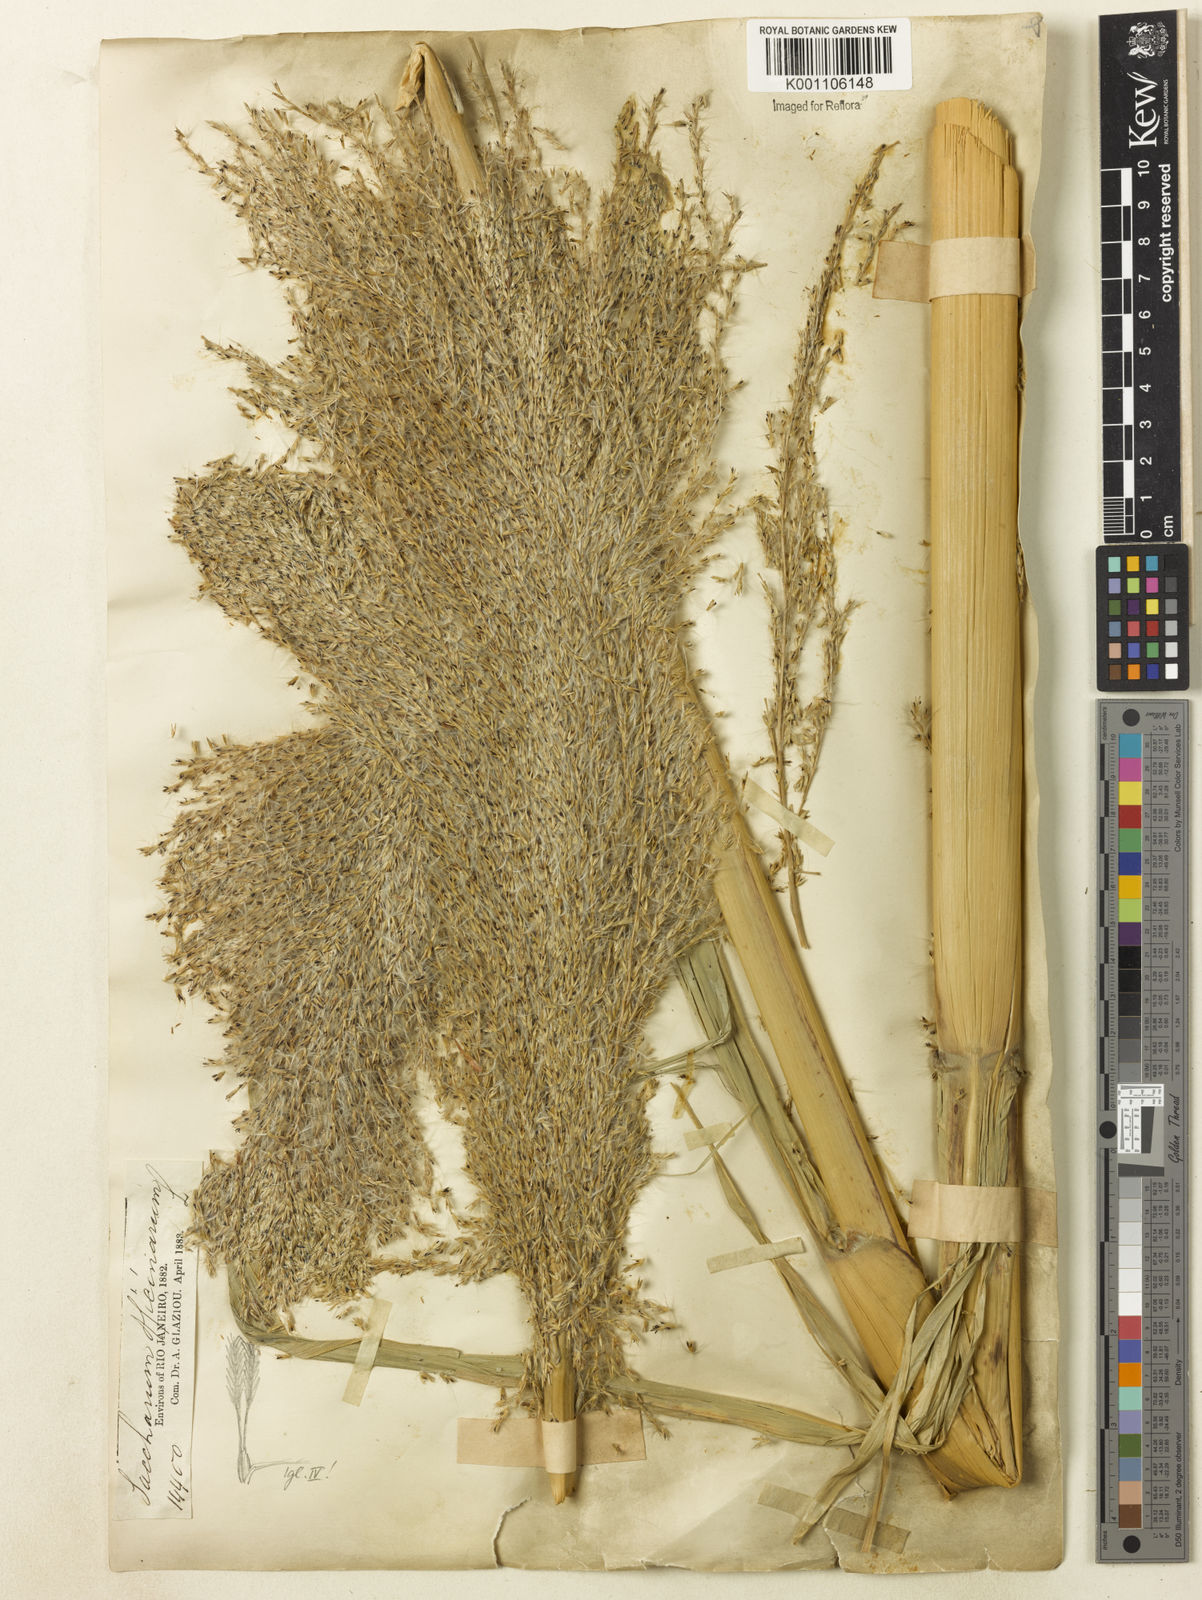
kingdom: Plantae
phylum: Tracheophyta
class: Liliopsida
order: Poales
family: Poaceae
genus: Saccharum
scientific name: Saccharum officinarum
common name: Sugarcane
